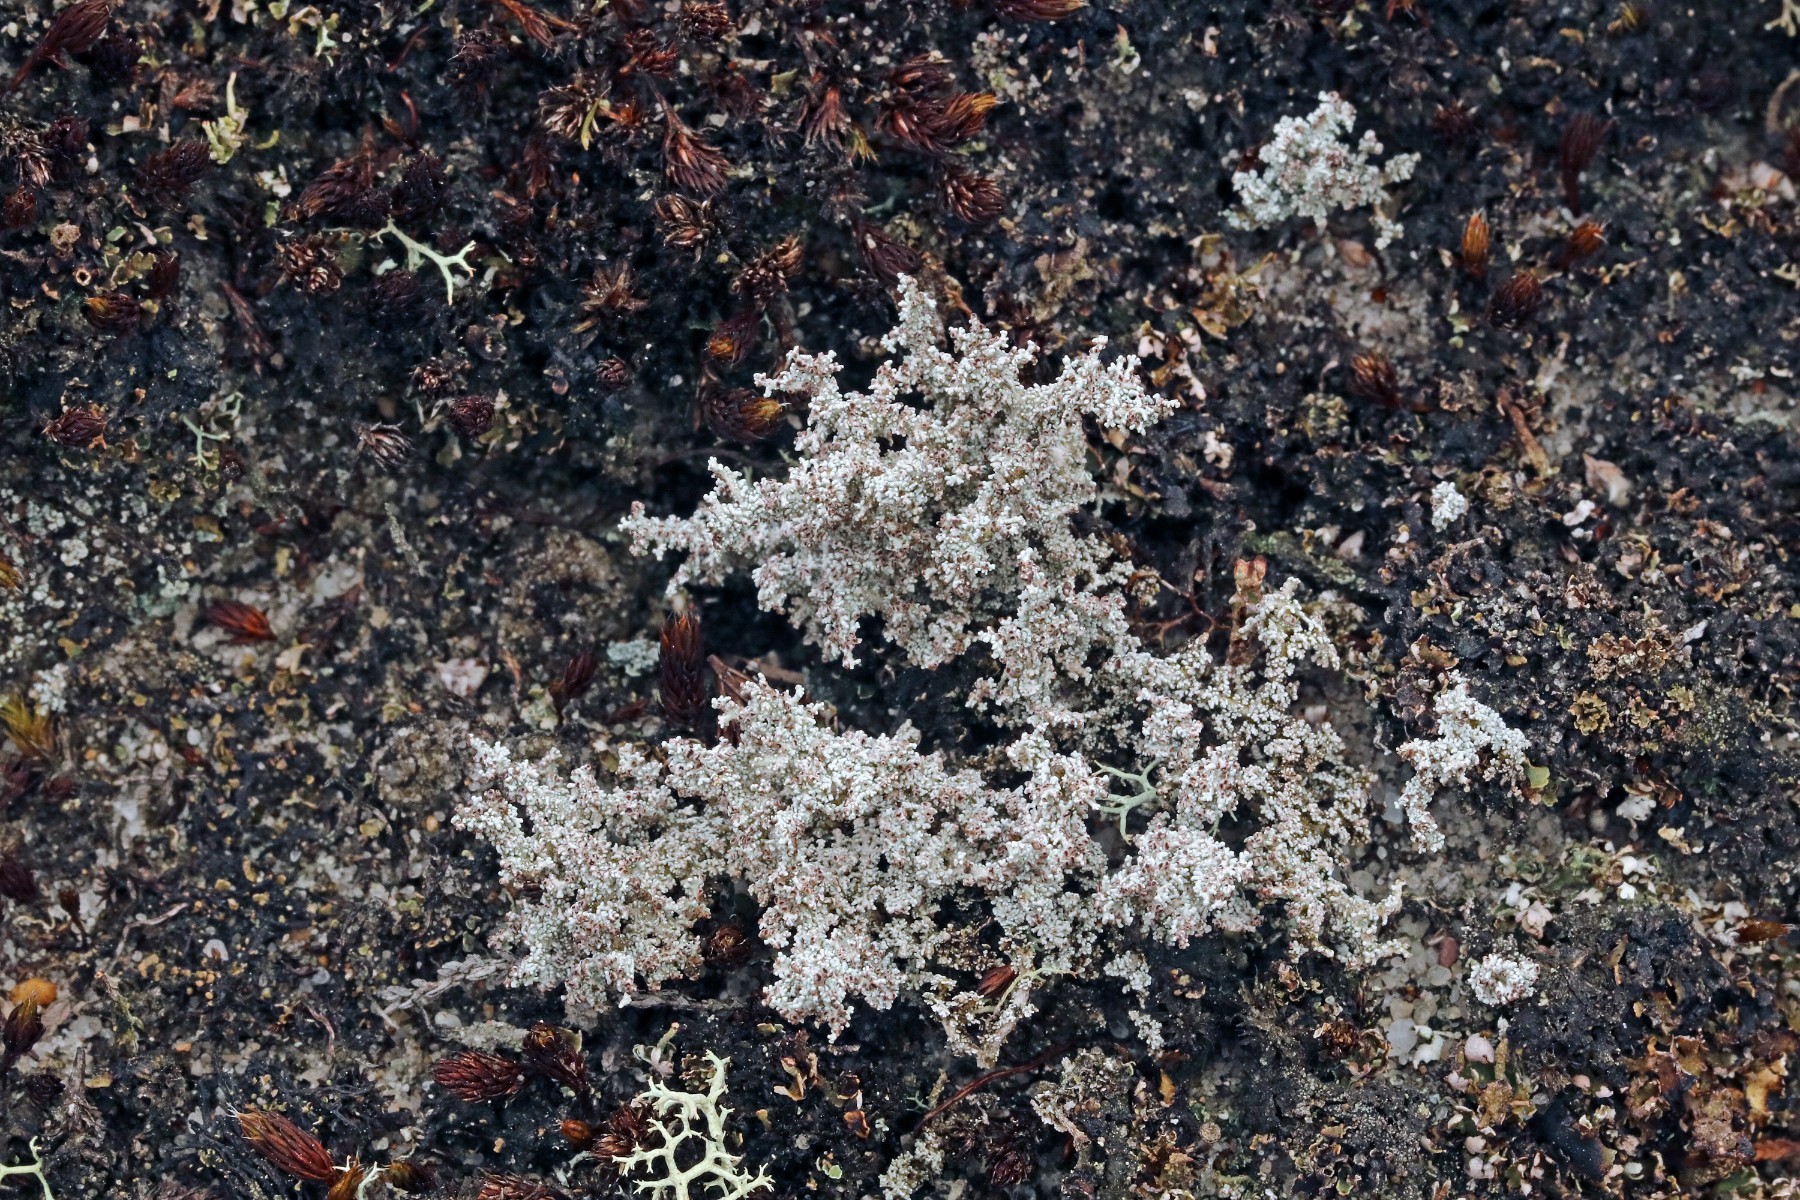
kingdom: Fungi
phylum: Ascomycota
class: Lecanoromycetes
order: Lecanorales
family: Stereocaulaceae
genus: Stereocaulon
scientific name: Stereocaulon saxatile
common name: klit-korallav
